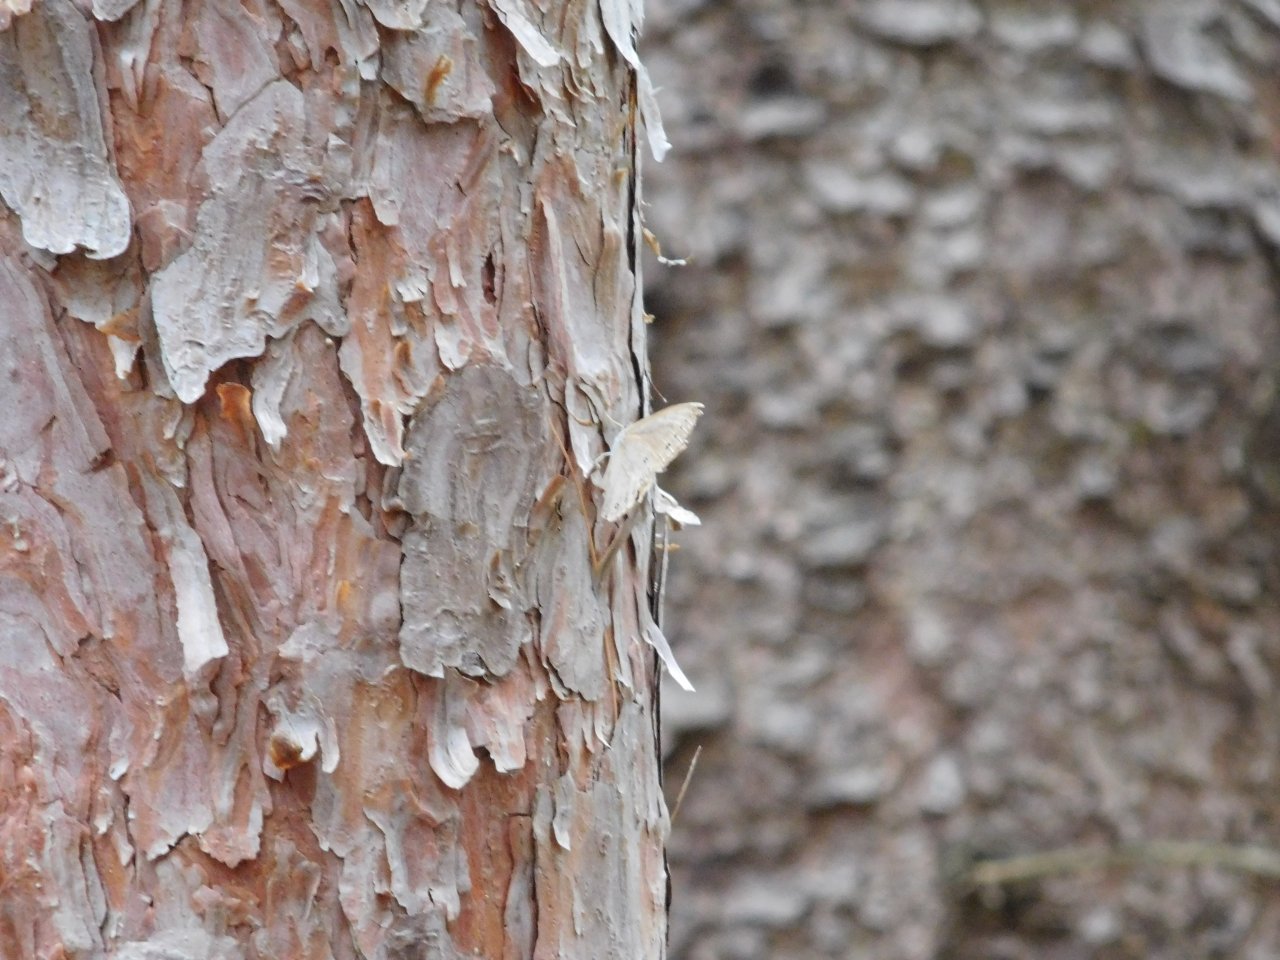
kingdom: Animalia
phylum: Arthropoda
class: Insecta
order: Lepidoptera
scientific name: Lepidoptera
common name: Butterflies
